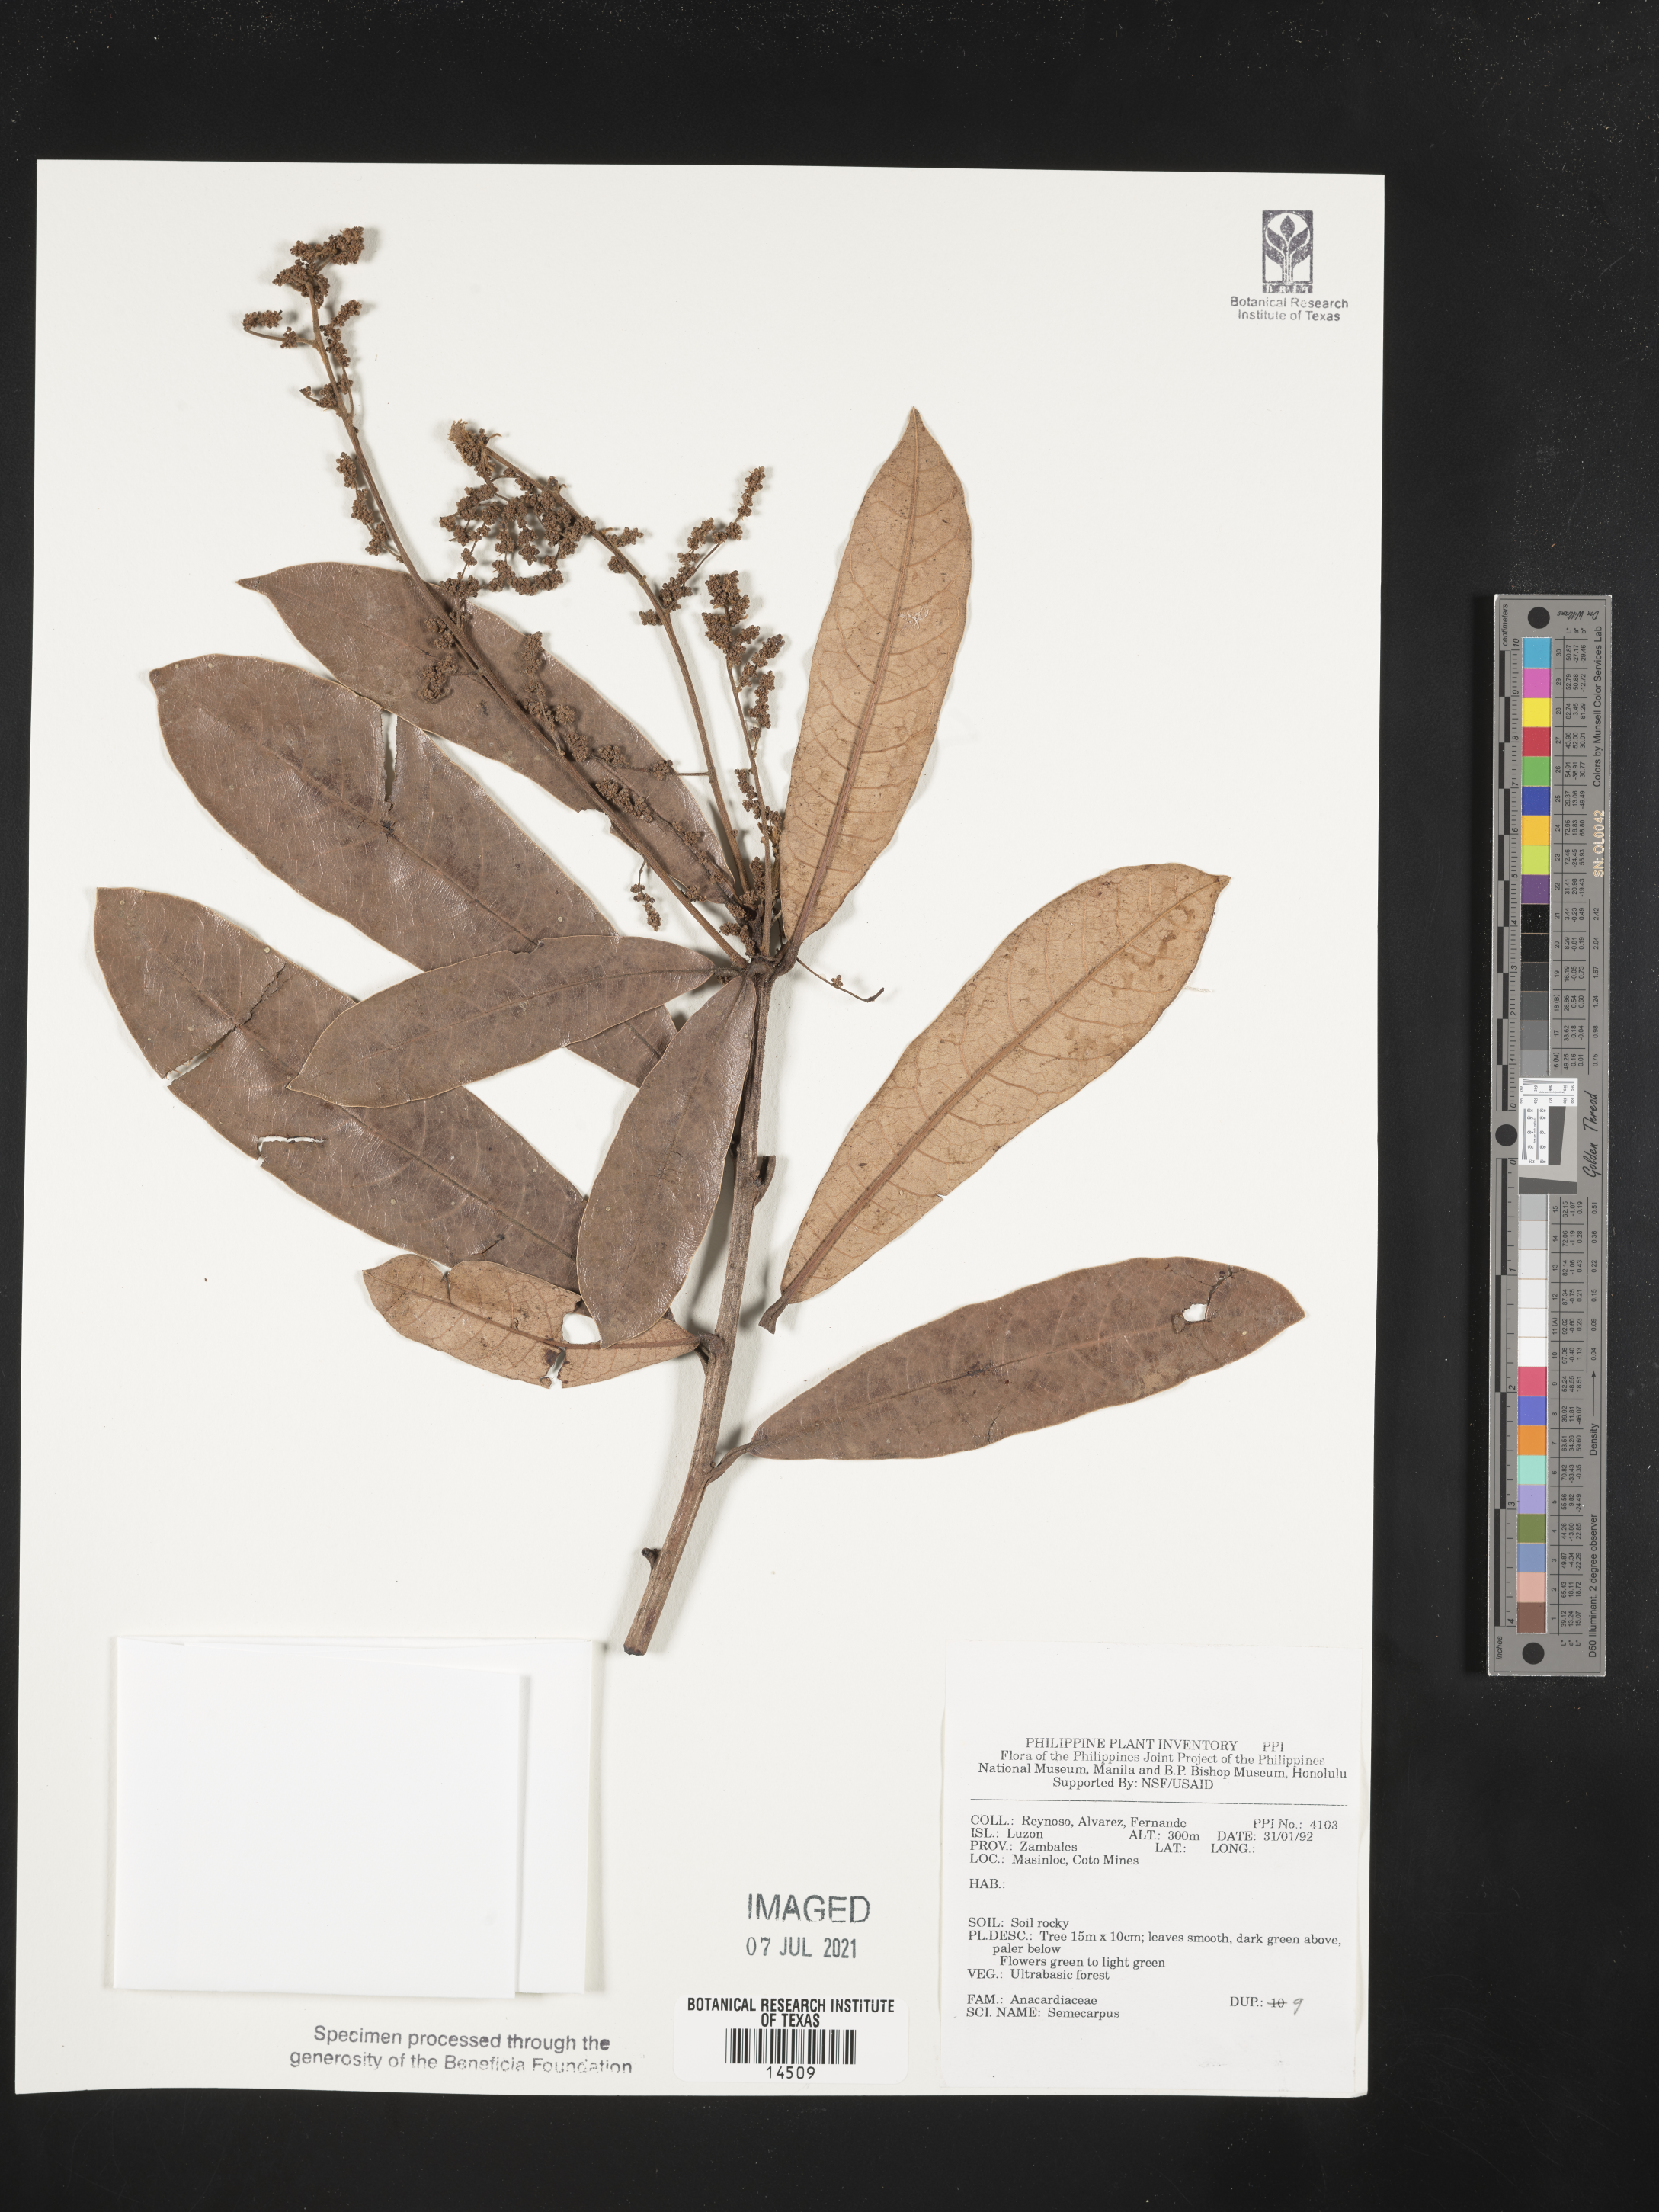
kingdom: Plantae
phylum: Tracheophyta
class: Magnoliopsida
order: Sapindales
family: Anacardiaceae
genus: Semecarpus
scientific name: Semecarpus
